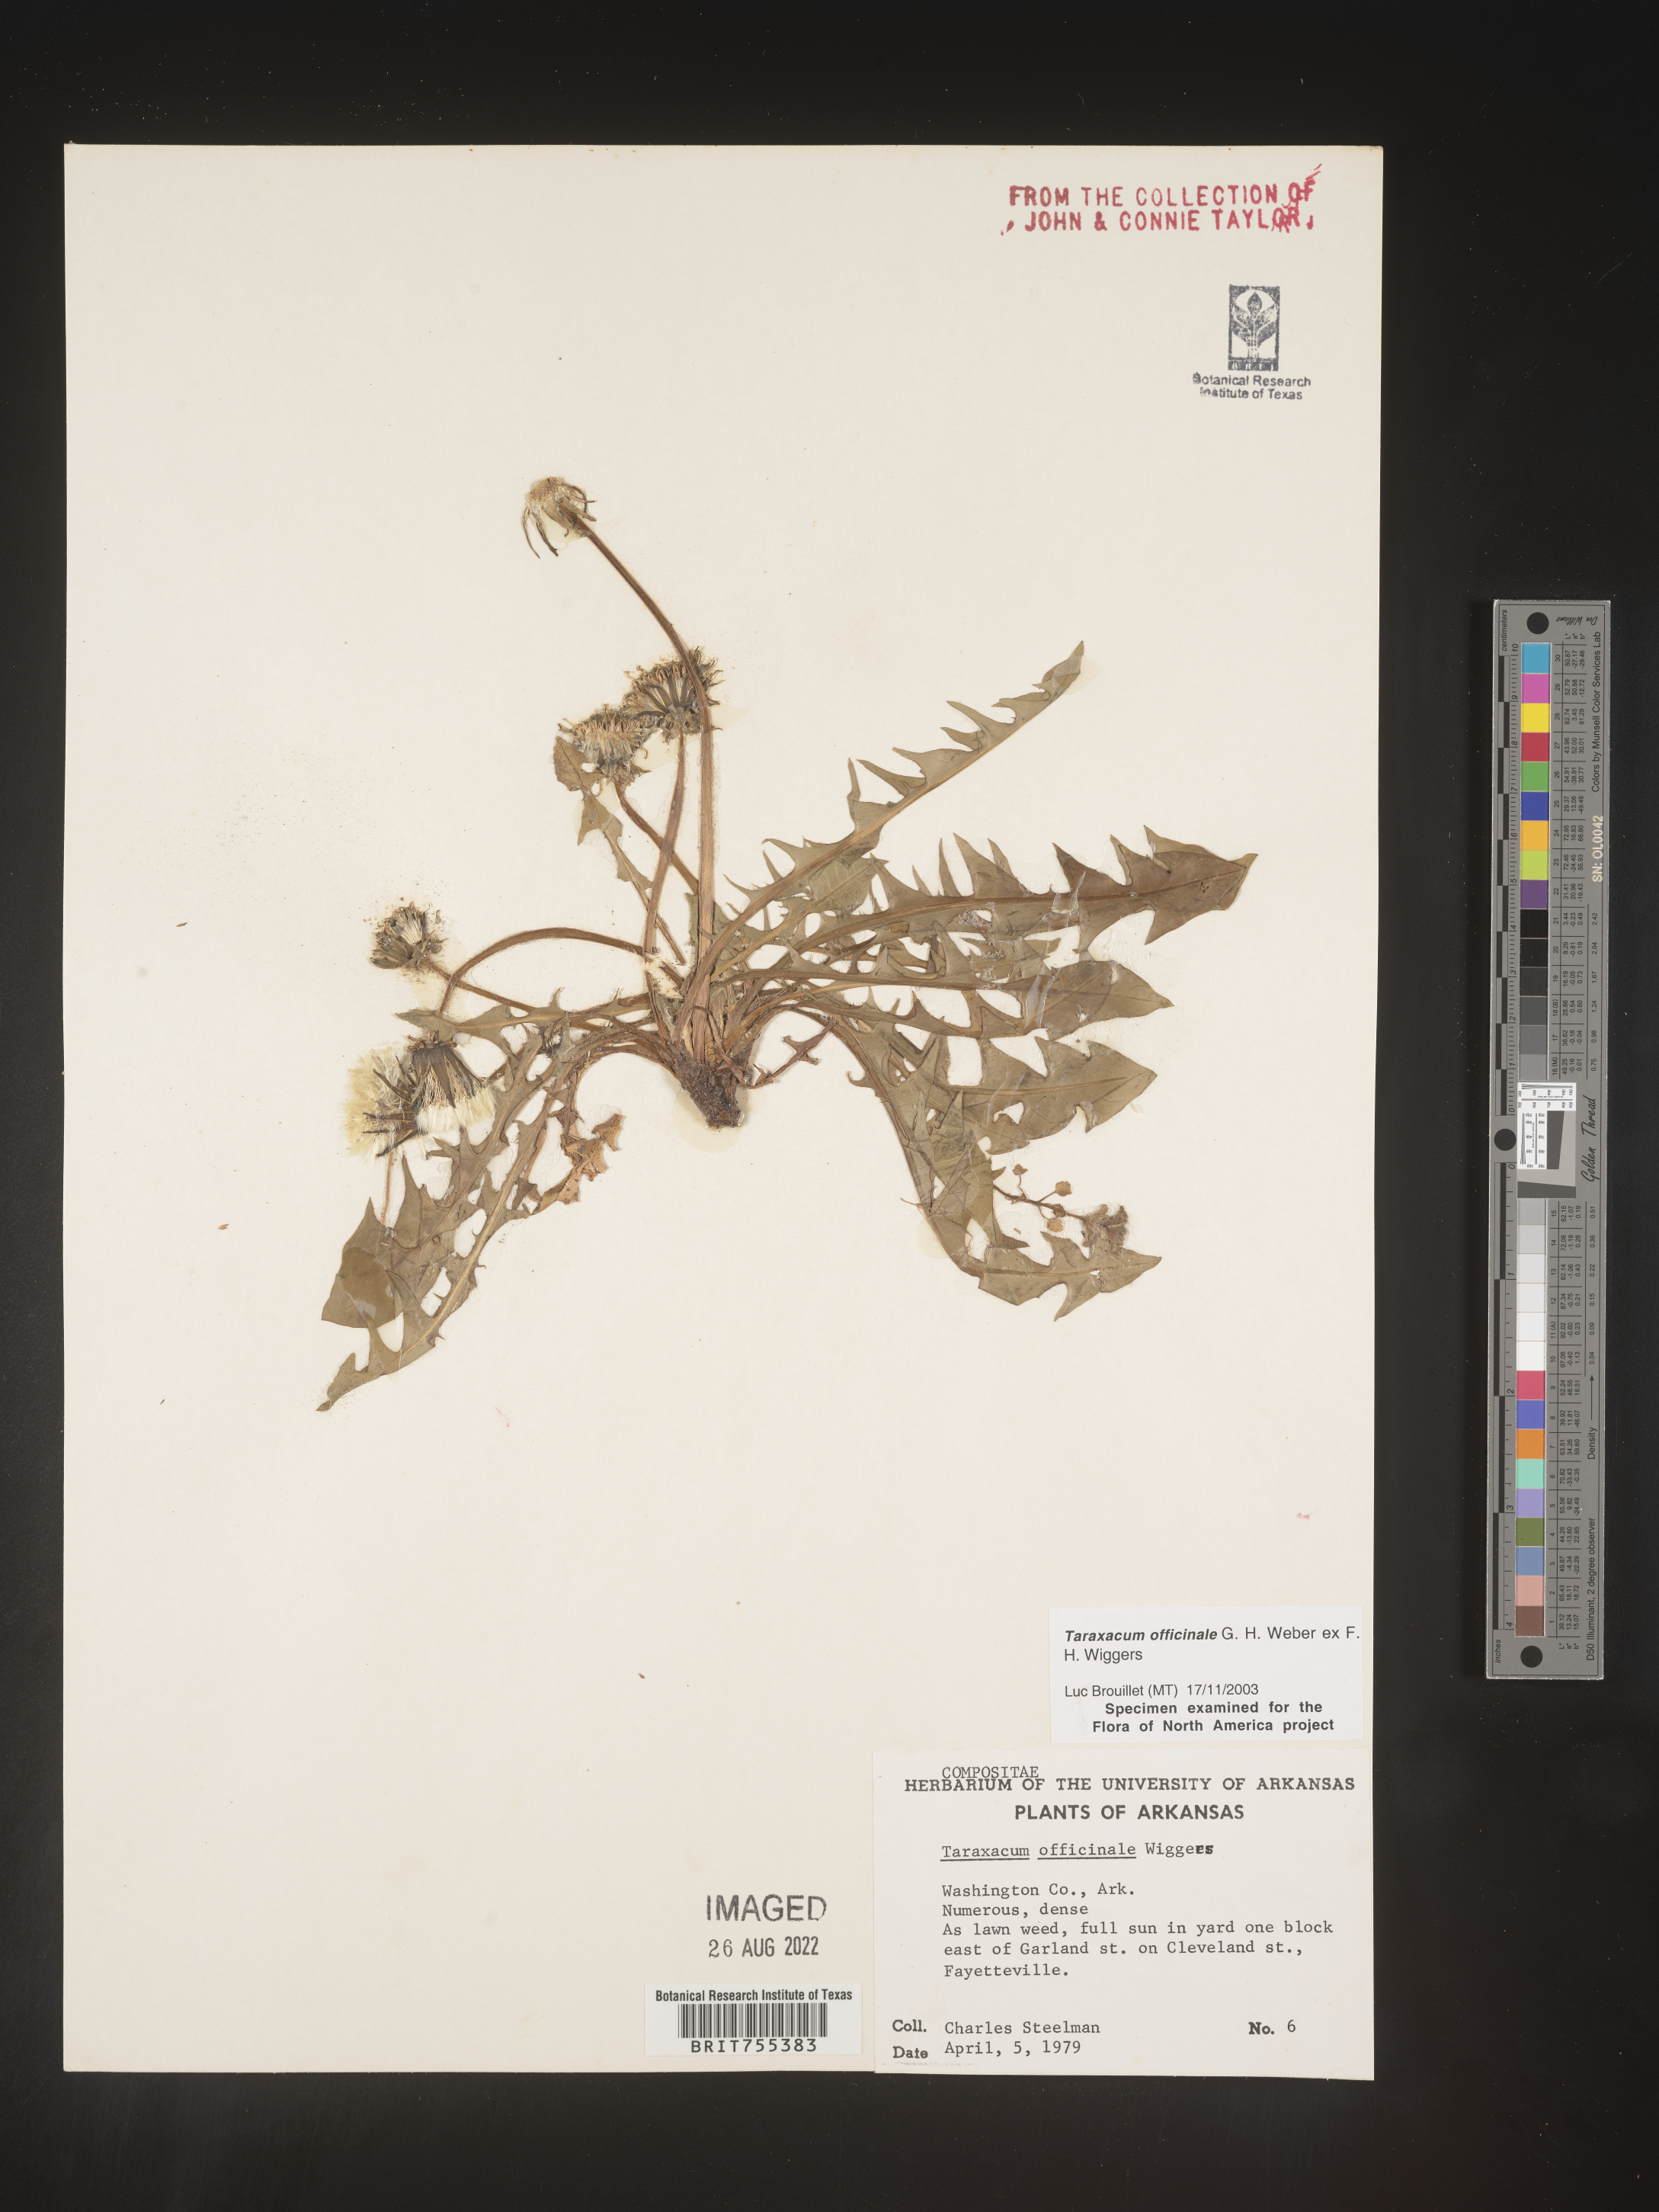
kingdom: Plantae
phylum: Tracheophyta
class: Magnoliopsida
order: Asterales
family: Asteraceae
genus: Taraxacum
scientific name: Taraxacum officinale
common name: Common dandelion
